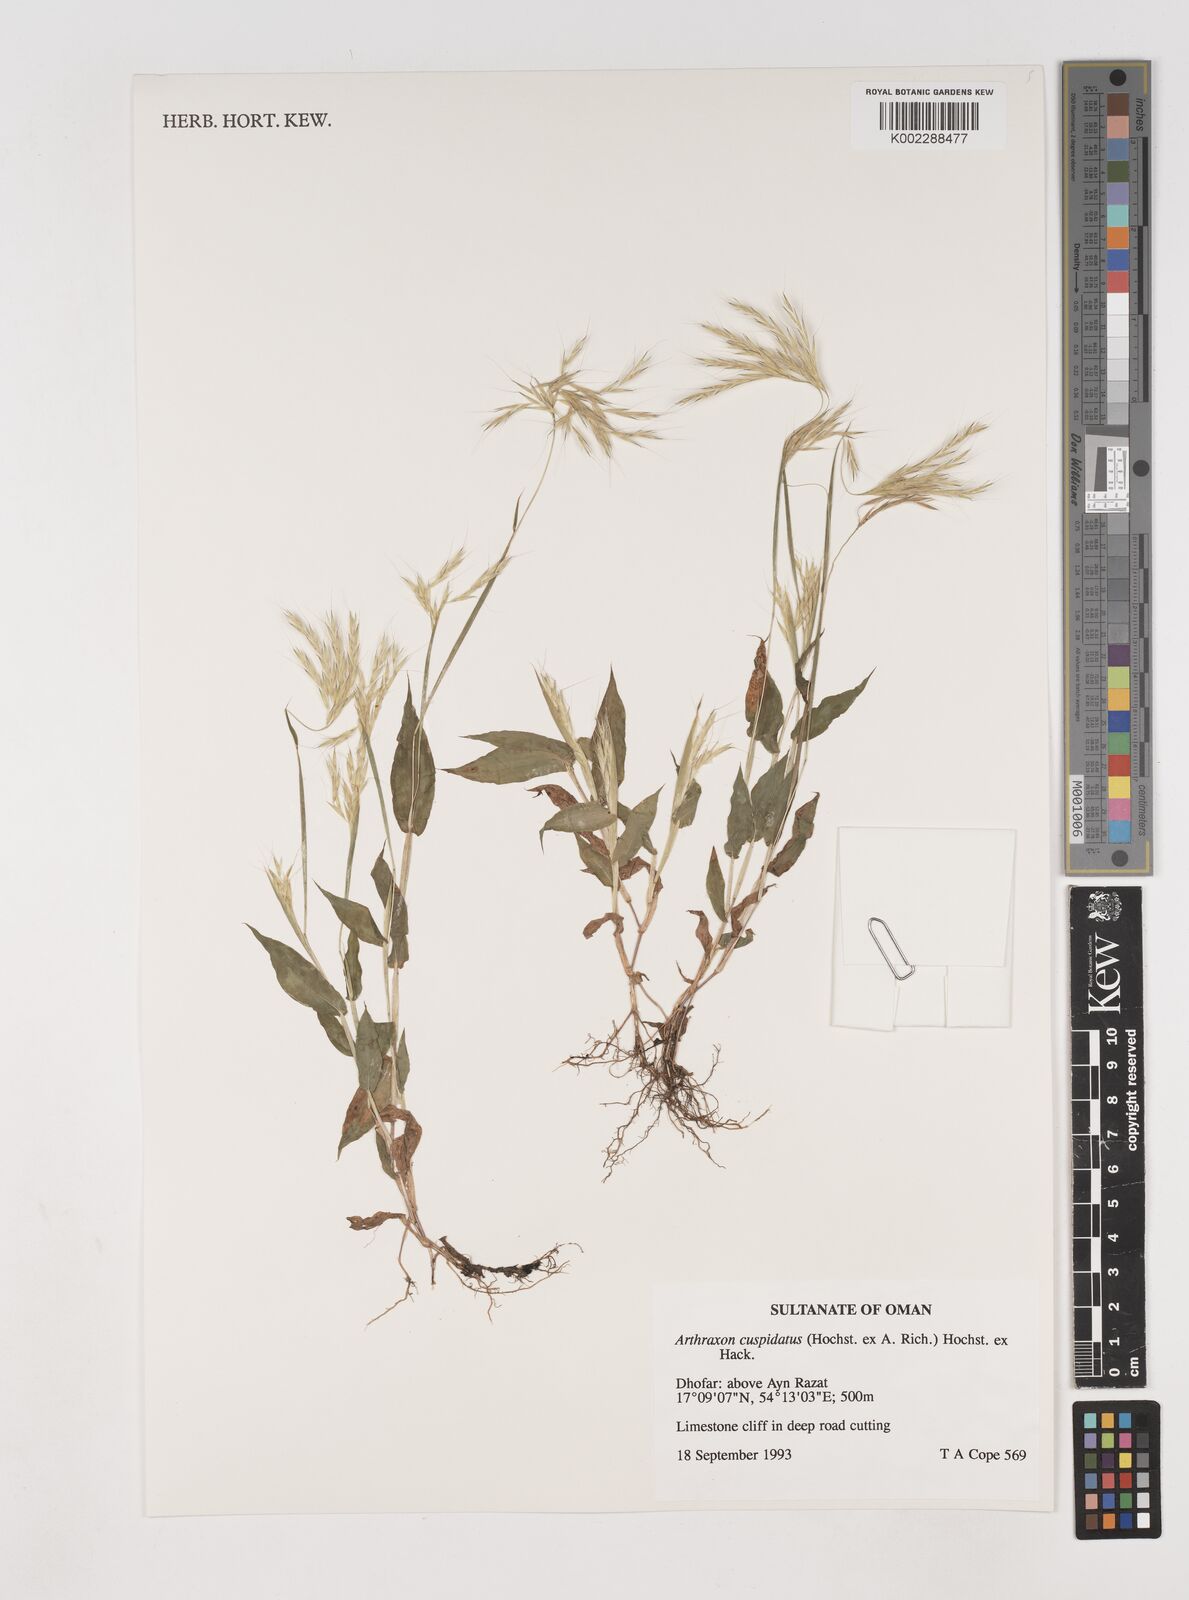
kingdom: Plantae
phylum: Tracheophyta
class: Liliopsida
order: Poales
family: Poaceae
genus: Arthraxon
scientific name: Arthraxon cuspidatus
